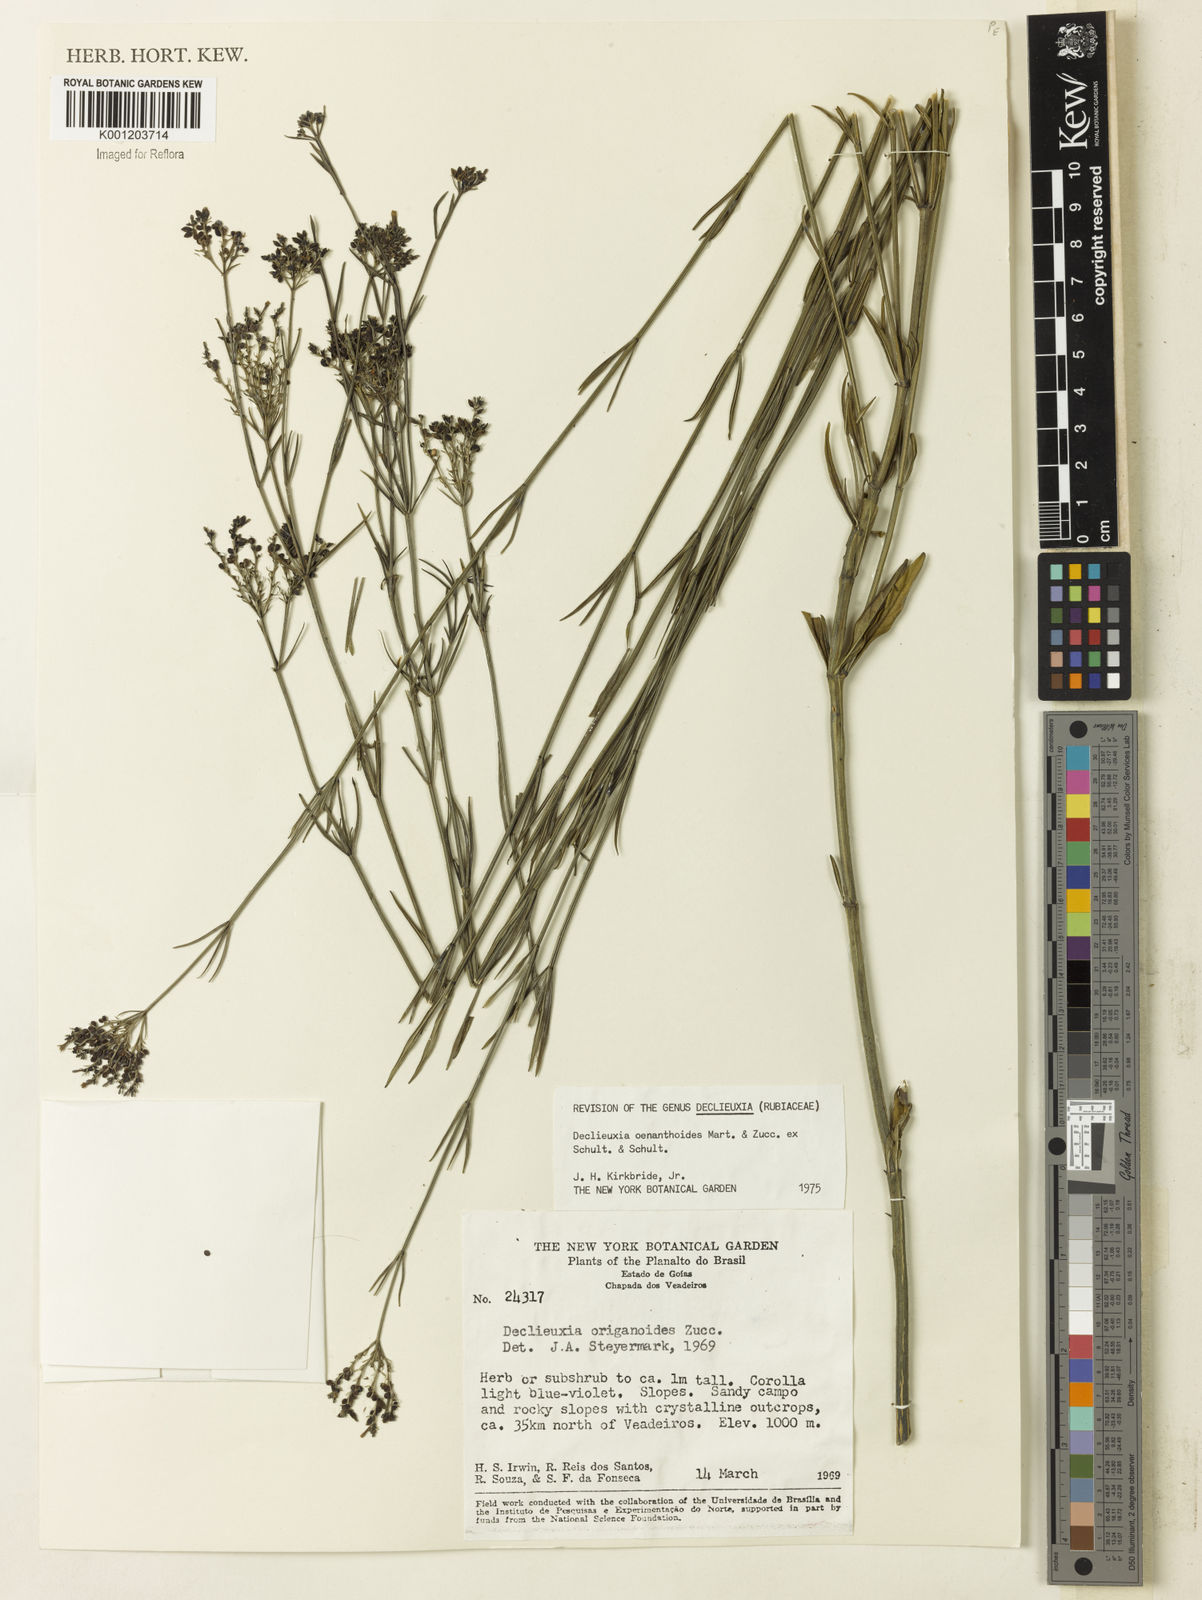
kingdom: Plantae
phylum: Tracheophyta
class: Magnoliopsida
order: Gentianales
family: Rubiaceae
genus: Declieuxia
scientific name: Declieuxia
